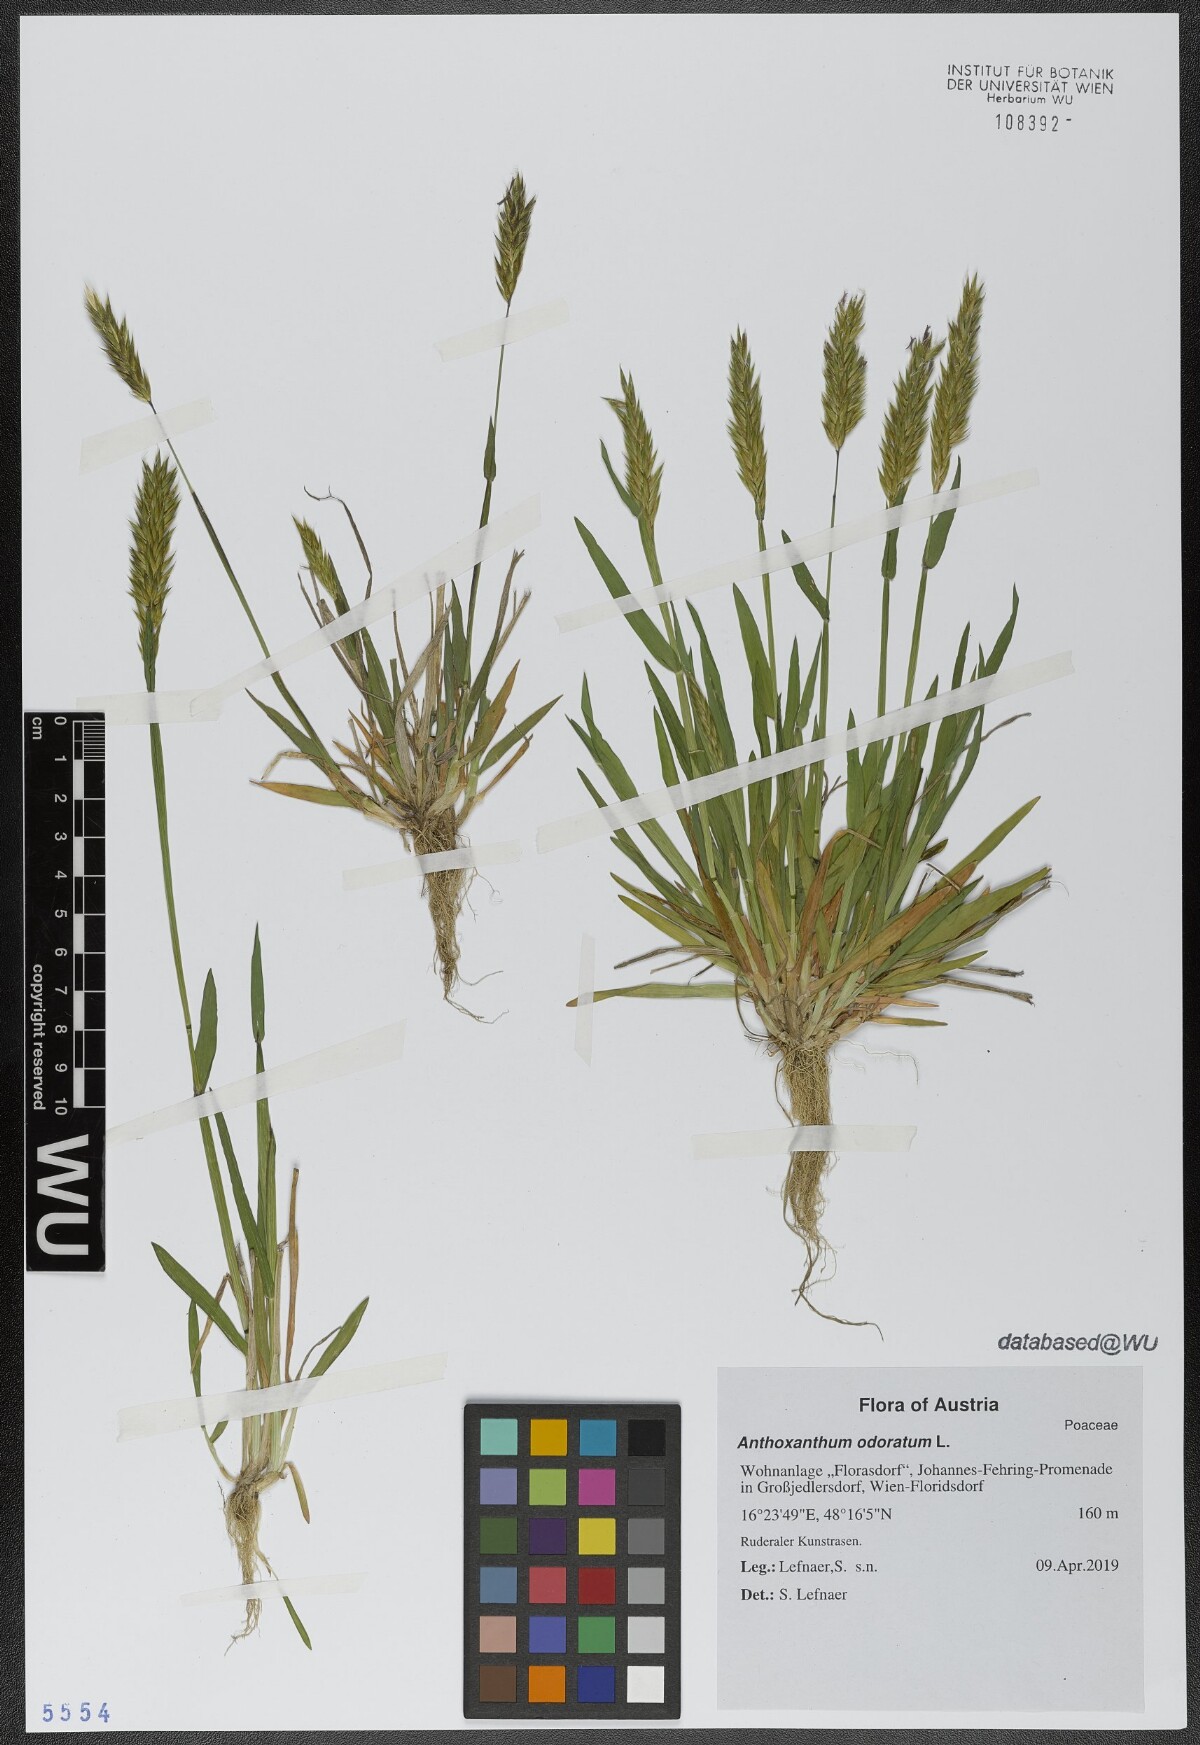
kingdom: Plantae
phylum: Tracheophyta
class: Liliopsida
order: Poales
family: Poaceae
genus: Anthoxanthum
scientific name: Anthoxanthum odoratum
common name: Sweet vernalgrass
